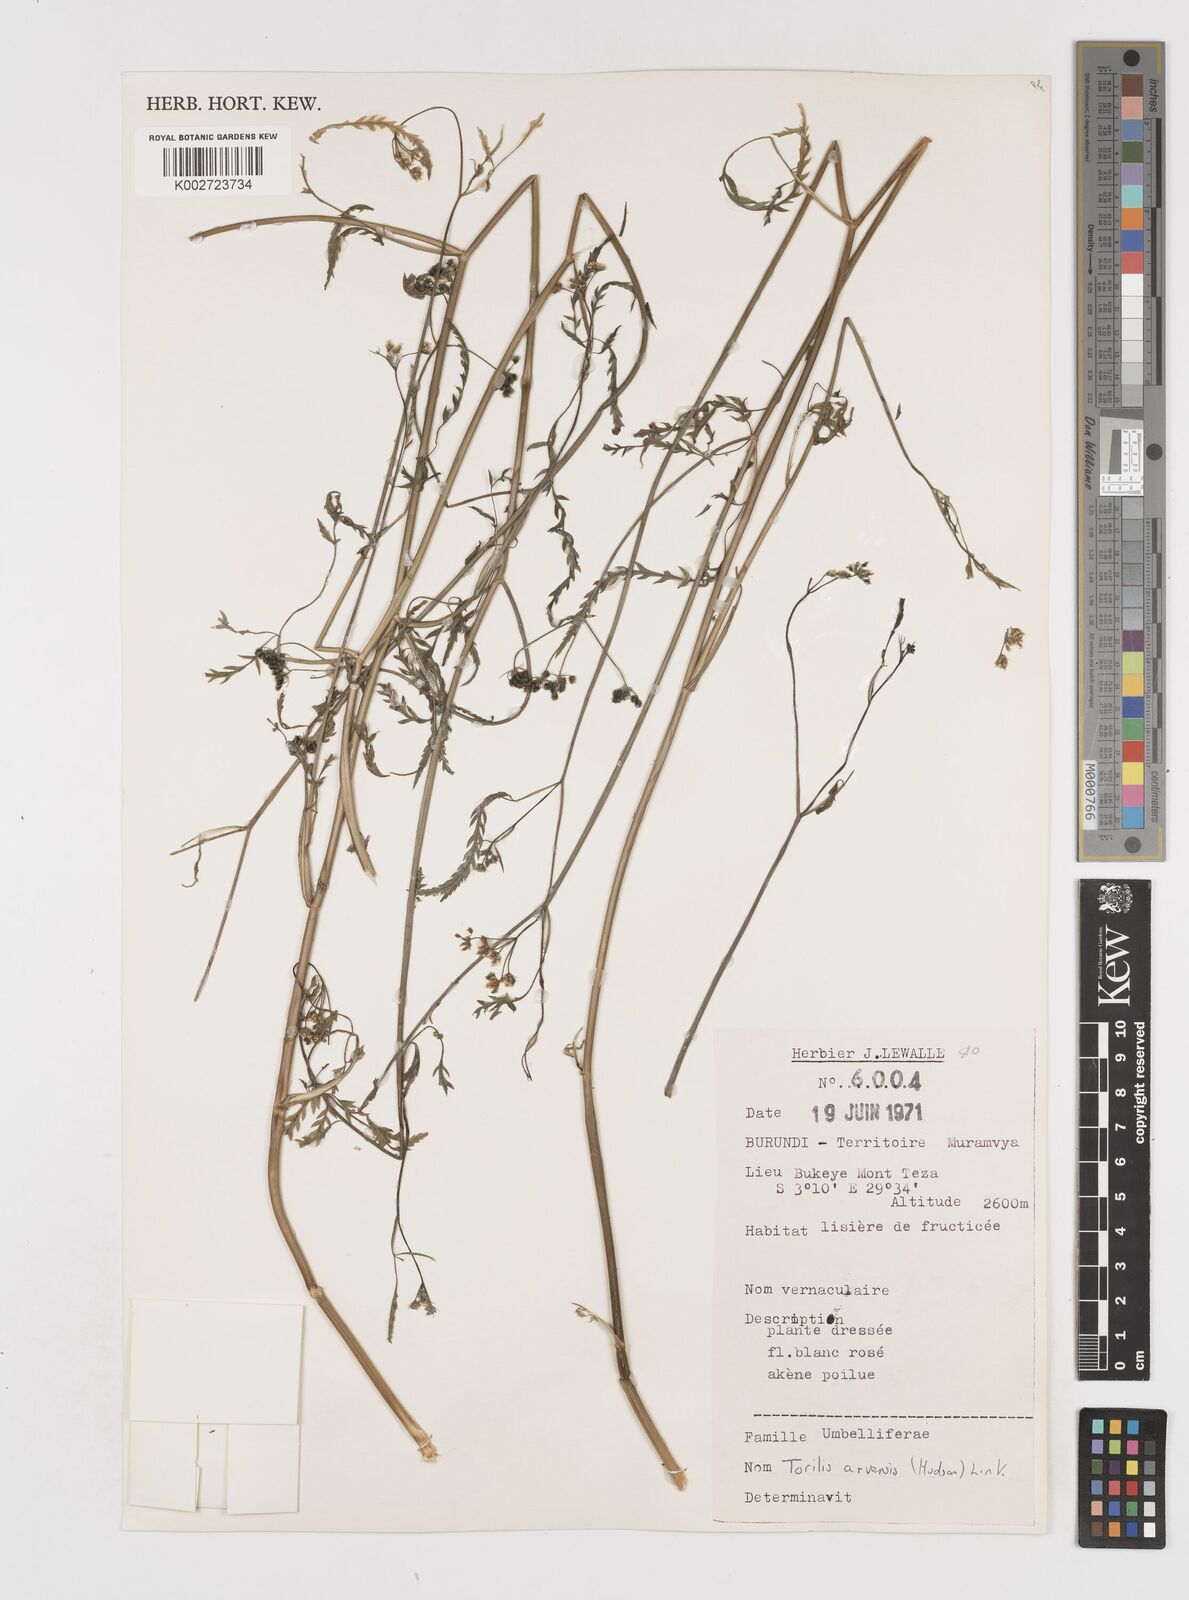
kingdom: Plantae
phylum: Tracheophyta
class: Magnoliopsida
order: Apiales
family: Apiaceae
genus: Torilis
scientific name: Torilis arvensis
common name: Spreading hedge-parsley
